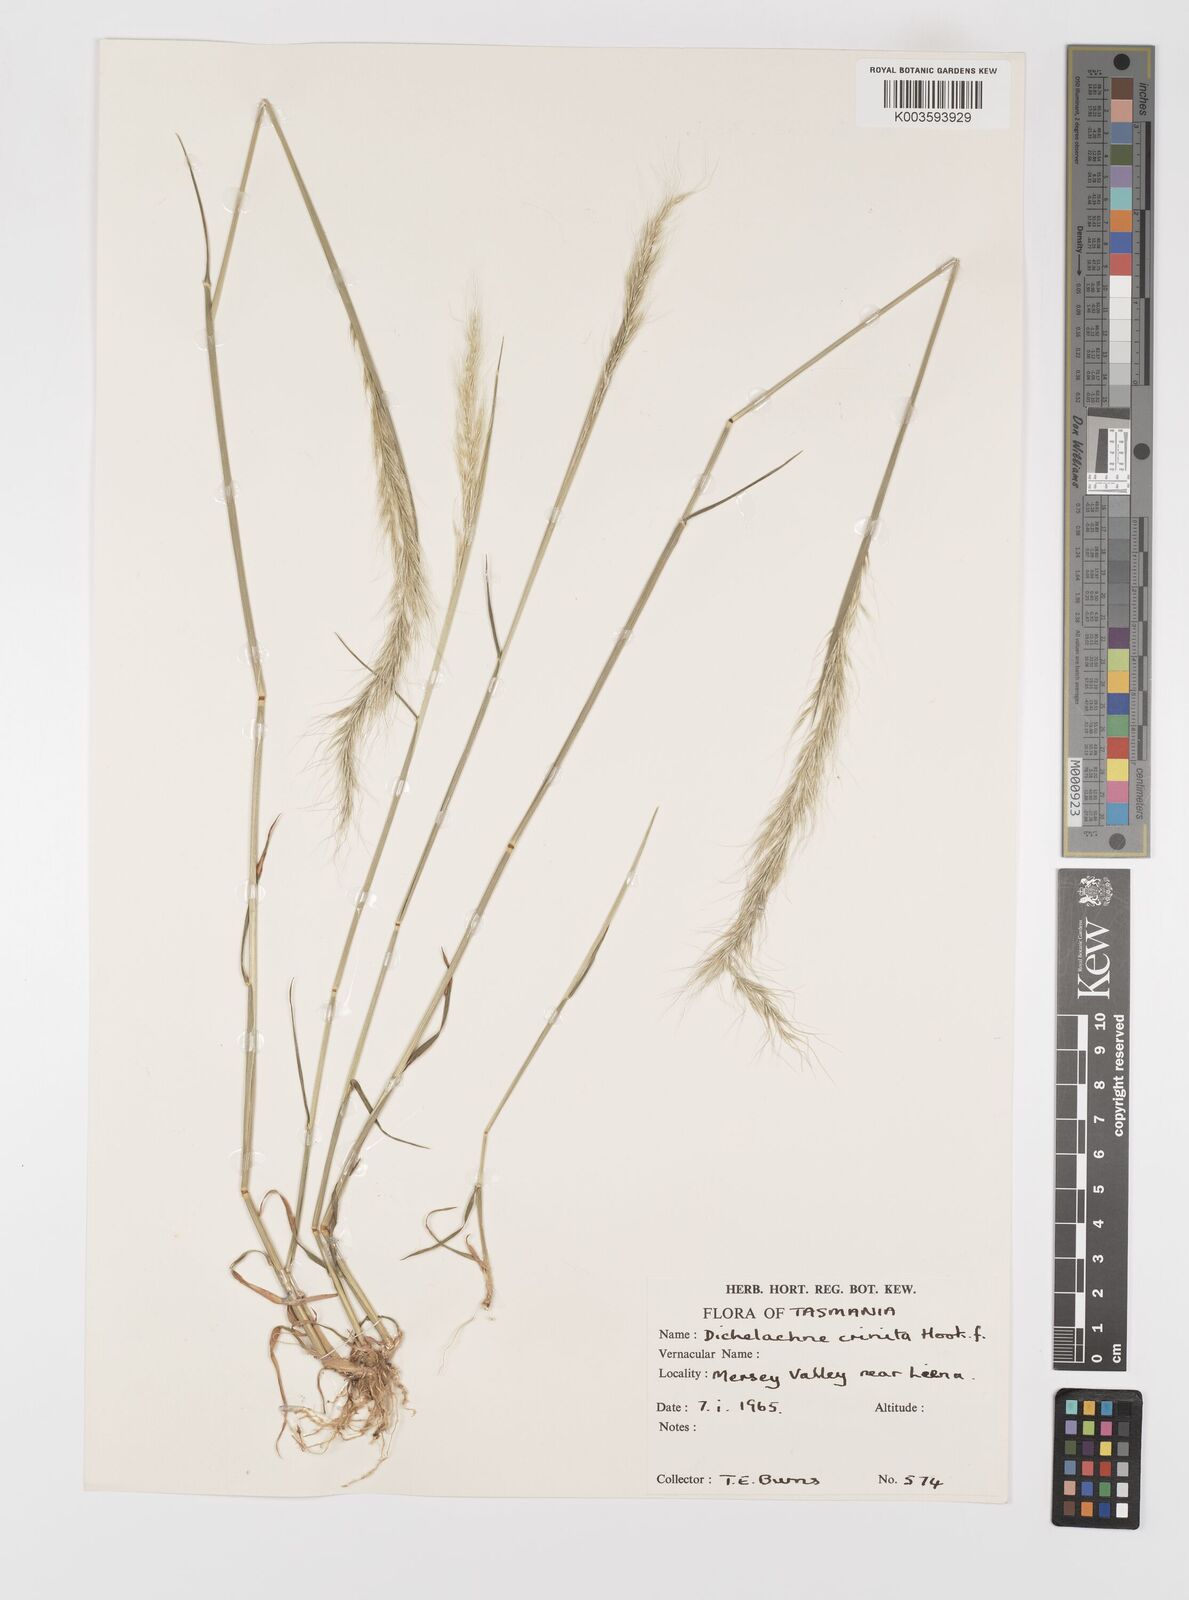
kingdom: Plantae
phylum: Tracheophyta
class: Liliopsida
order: Poales
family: Poaceae
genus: Dichelachne
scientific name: Dichelachne crinita
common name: Clovenfoot plumegrass
